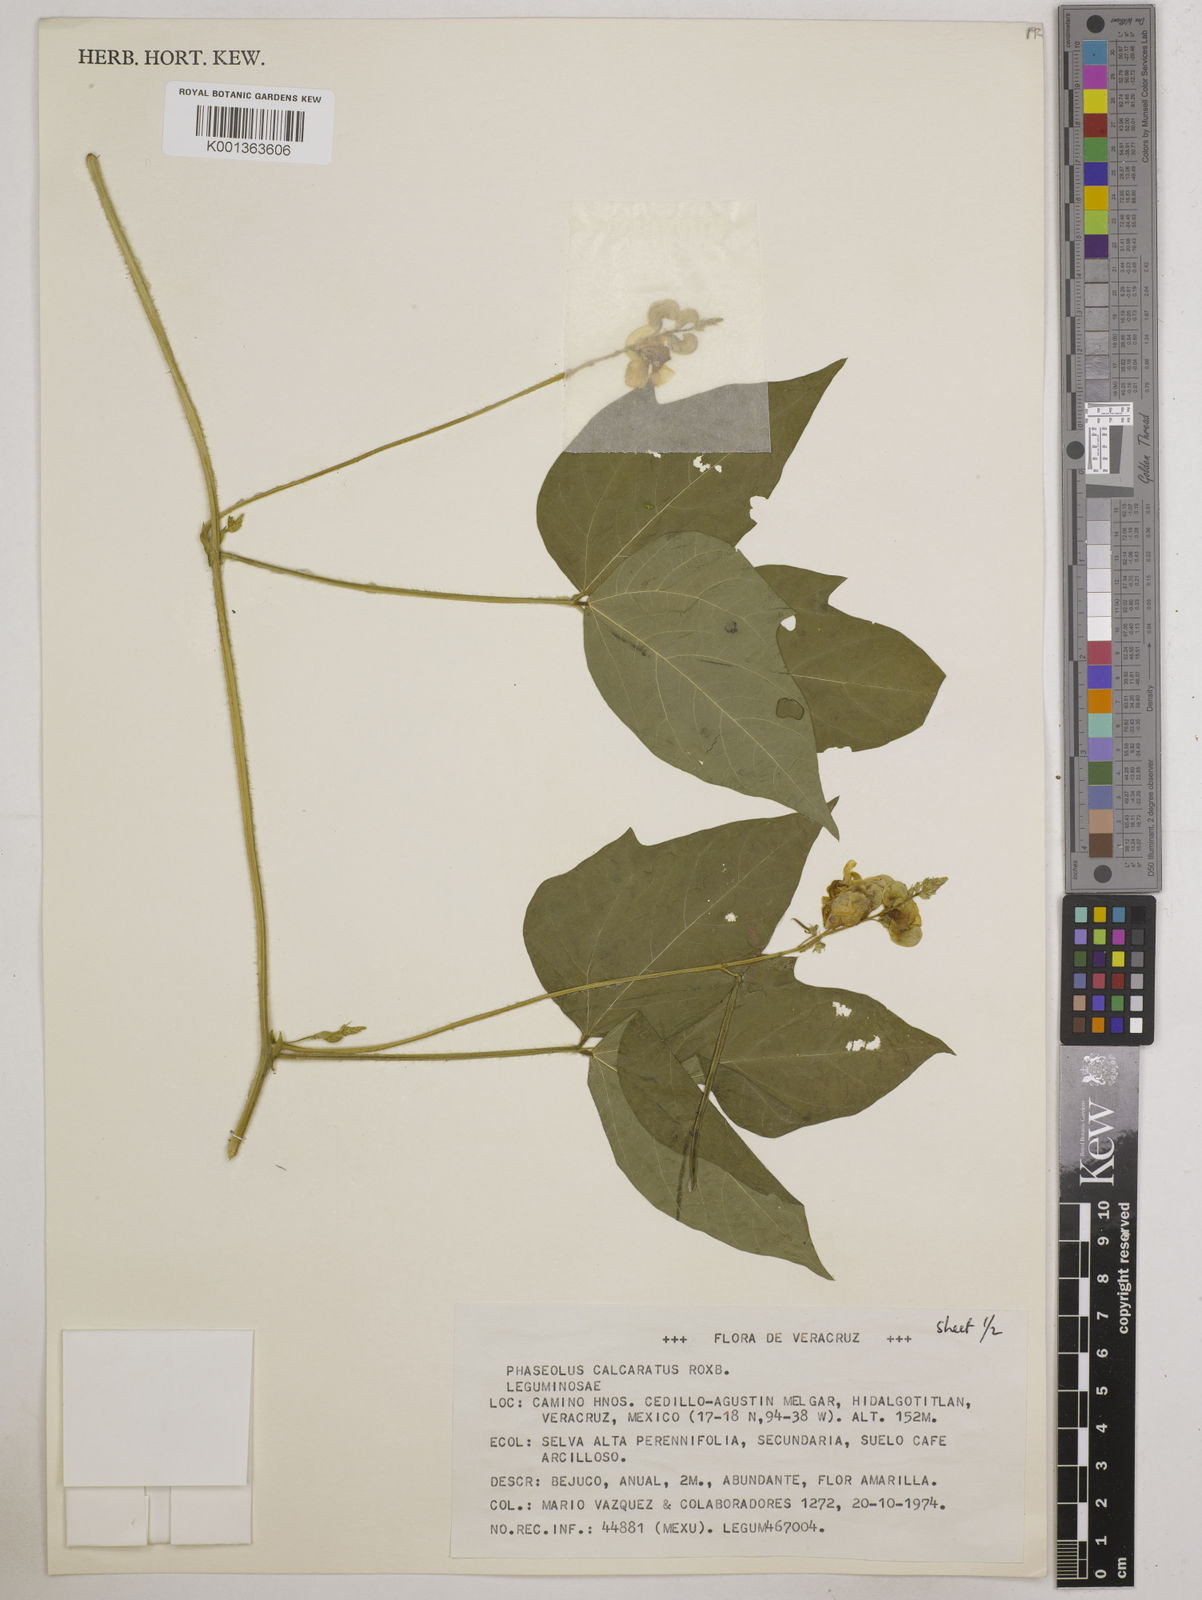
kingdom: Plantae
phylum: Tracheophyta
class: Magnoliopsida
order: Fabales
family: Fabaceae
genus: Vigna
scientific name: Vigna umbellata
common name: Oriental-bean
